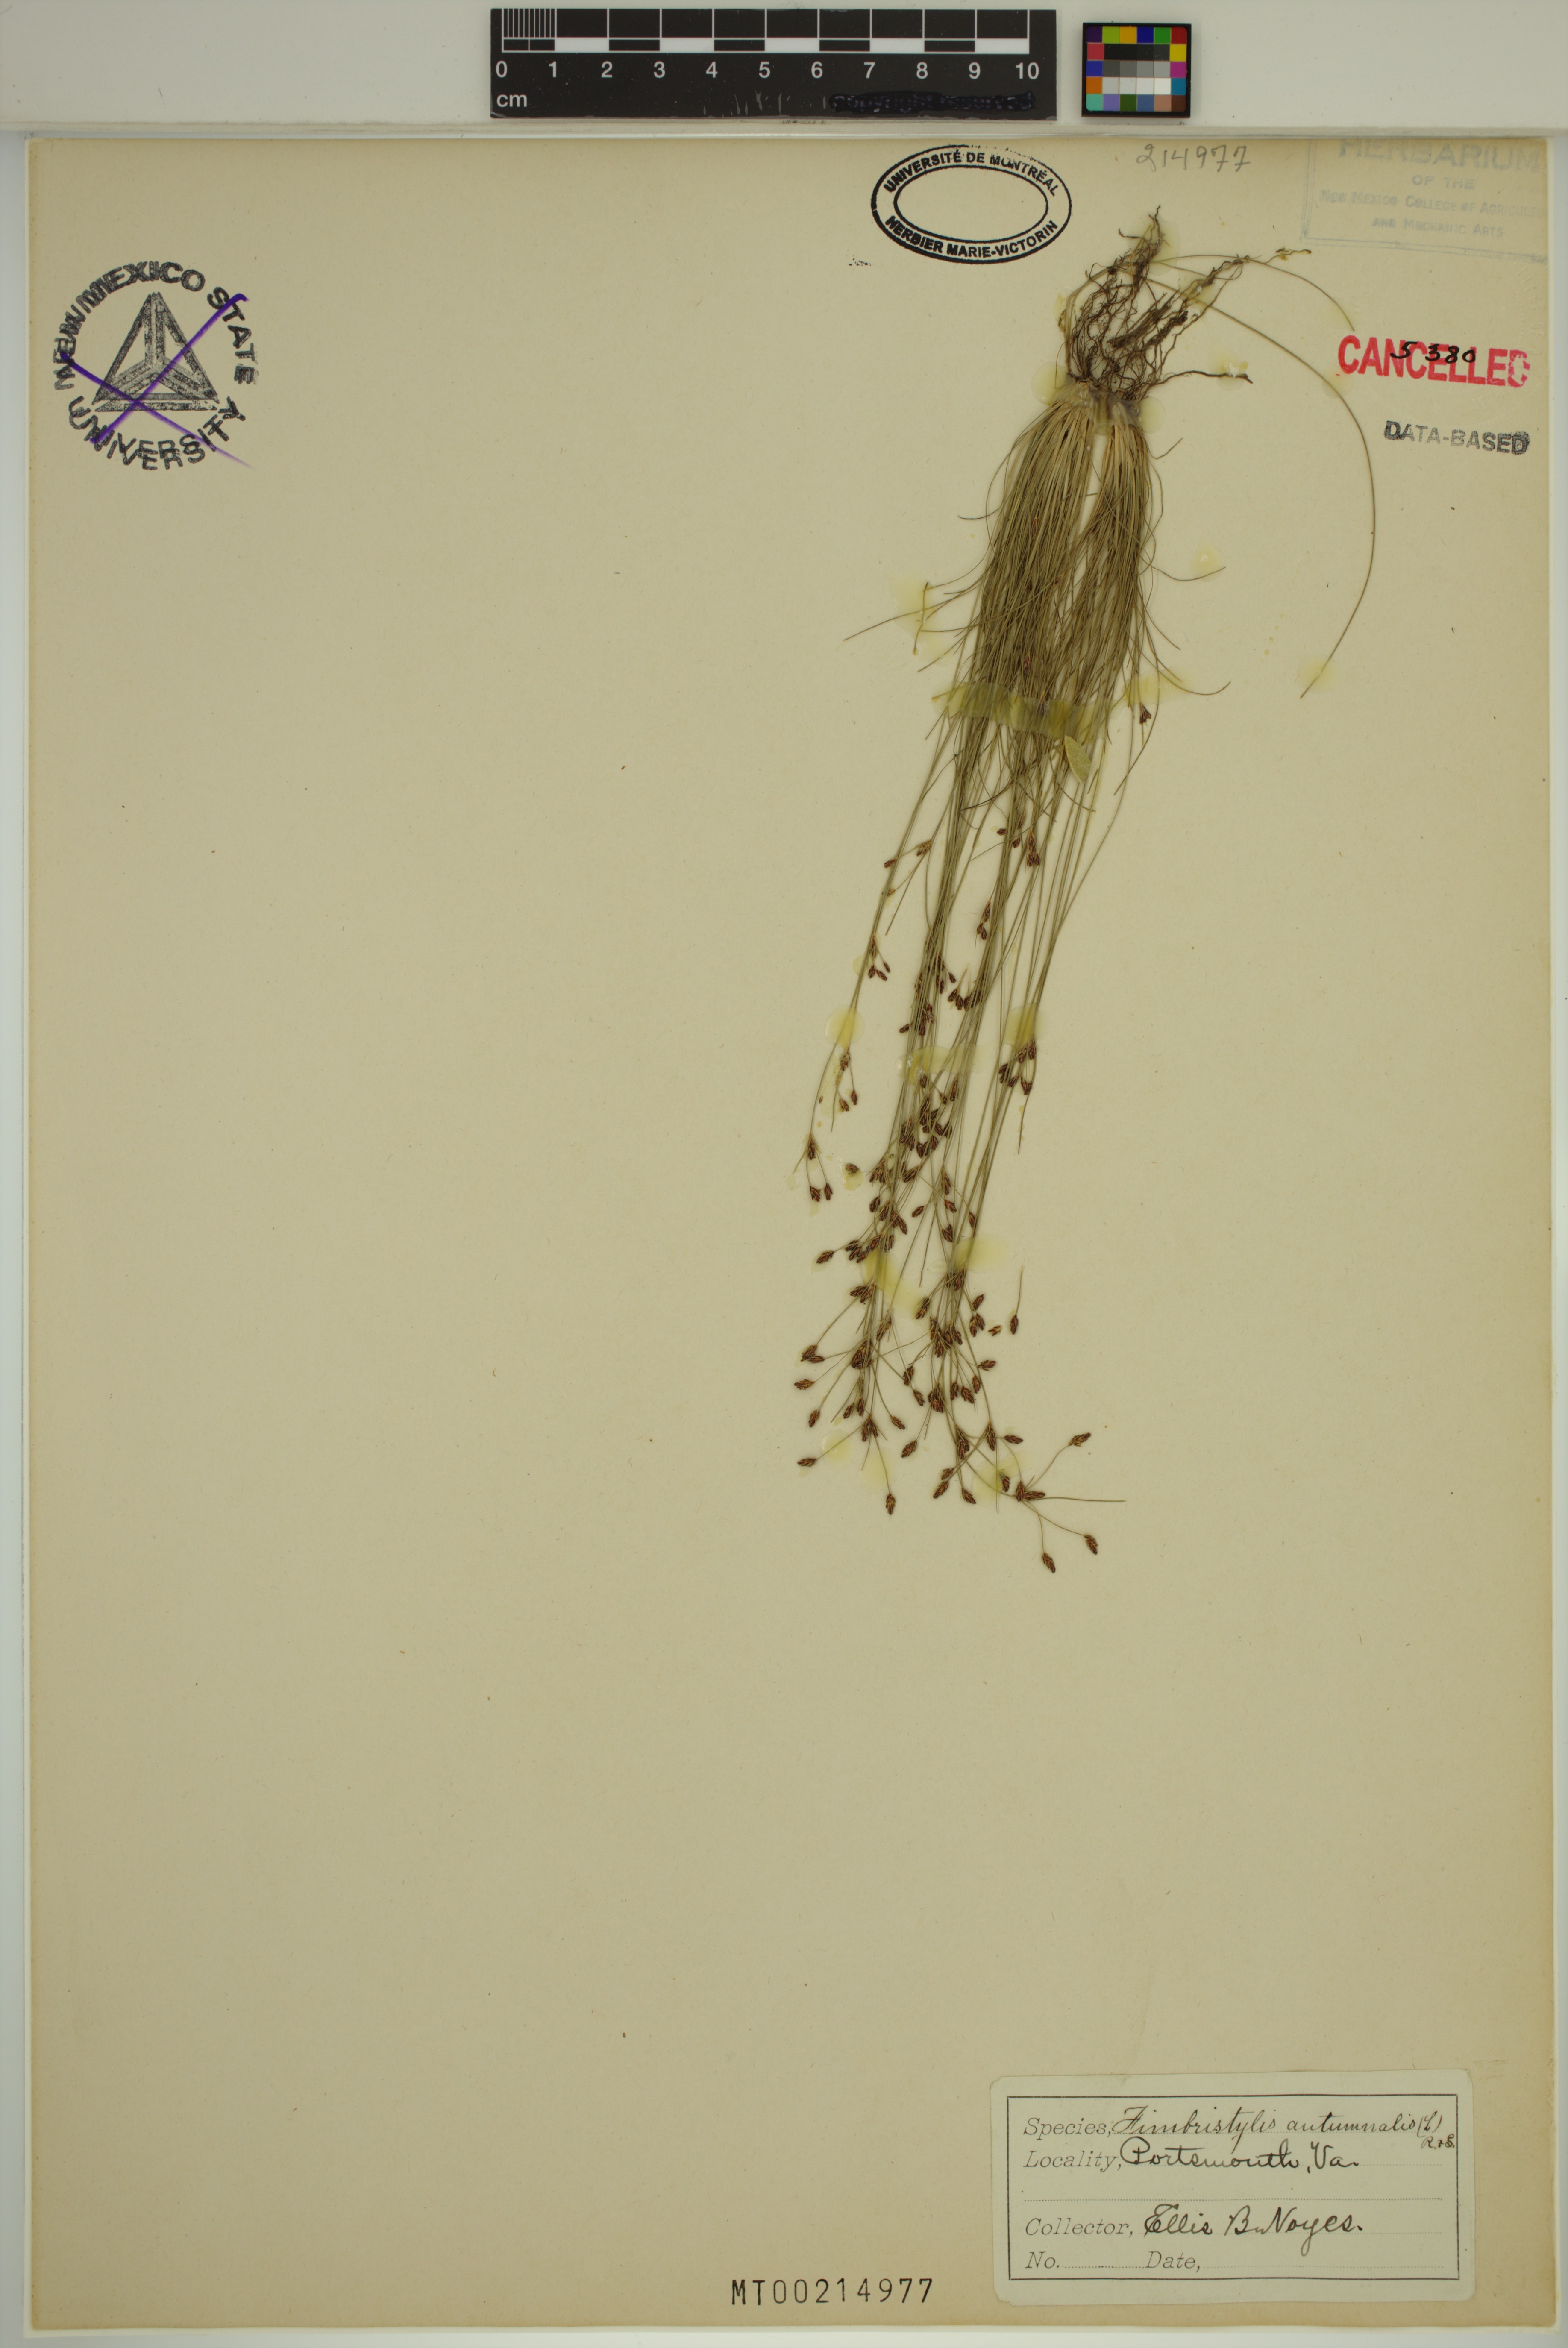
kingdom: Plantae
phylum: Tracheophyta
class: Liliopsida
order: Poales
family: Cyperaceae
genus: Fimbristylis
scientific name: Fimbristylis autumnalis
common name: Slender fimbristylis
